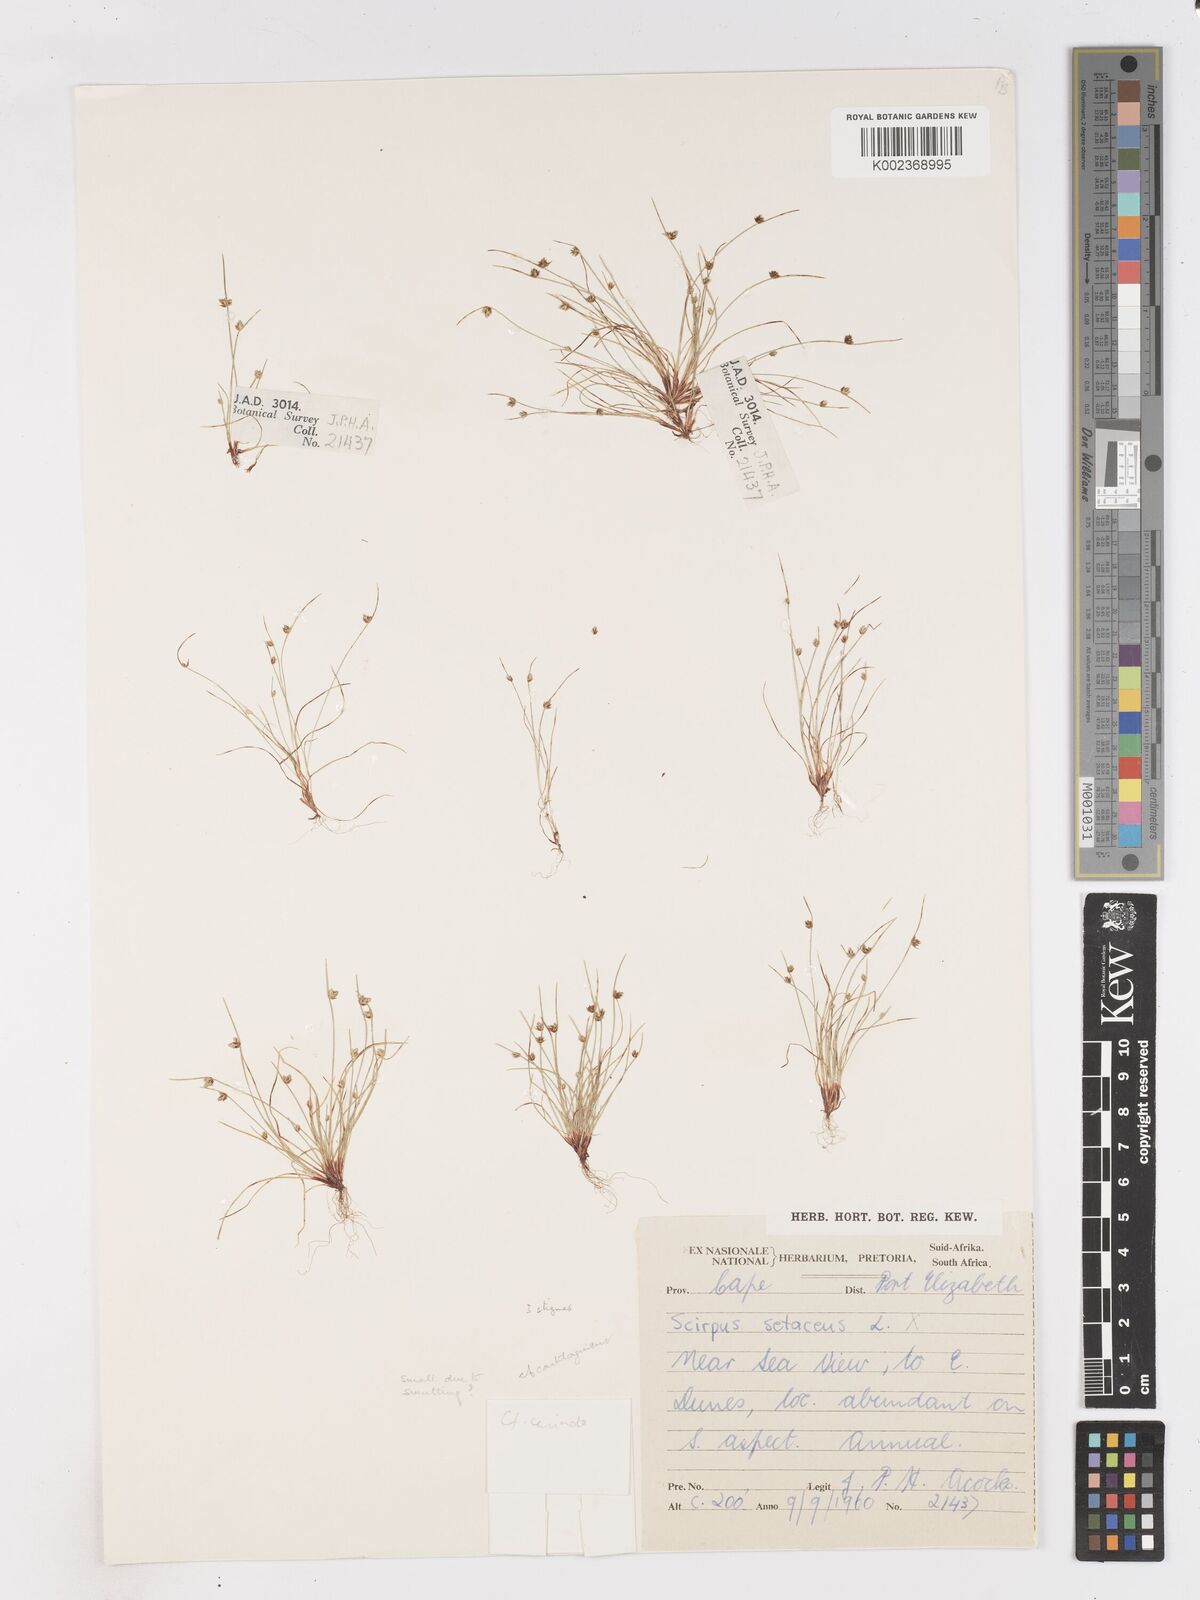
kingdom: Plantae
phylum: Tracheophyta
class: Liliopsida
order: Poales
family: Cyperaceae
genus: Isolepis
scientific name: Isolepis setacea
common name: Bristle club-rush
